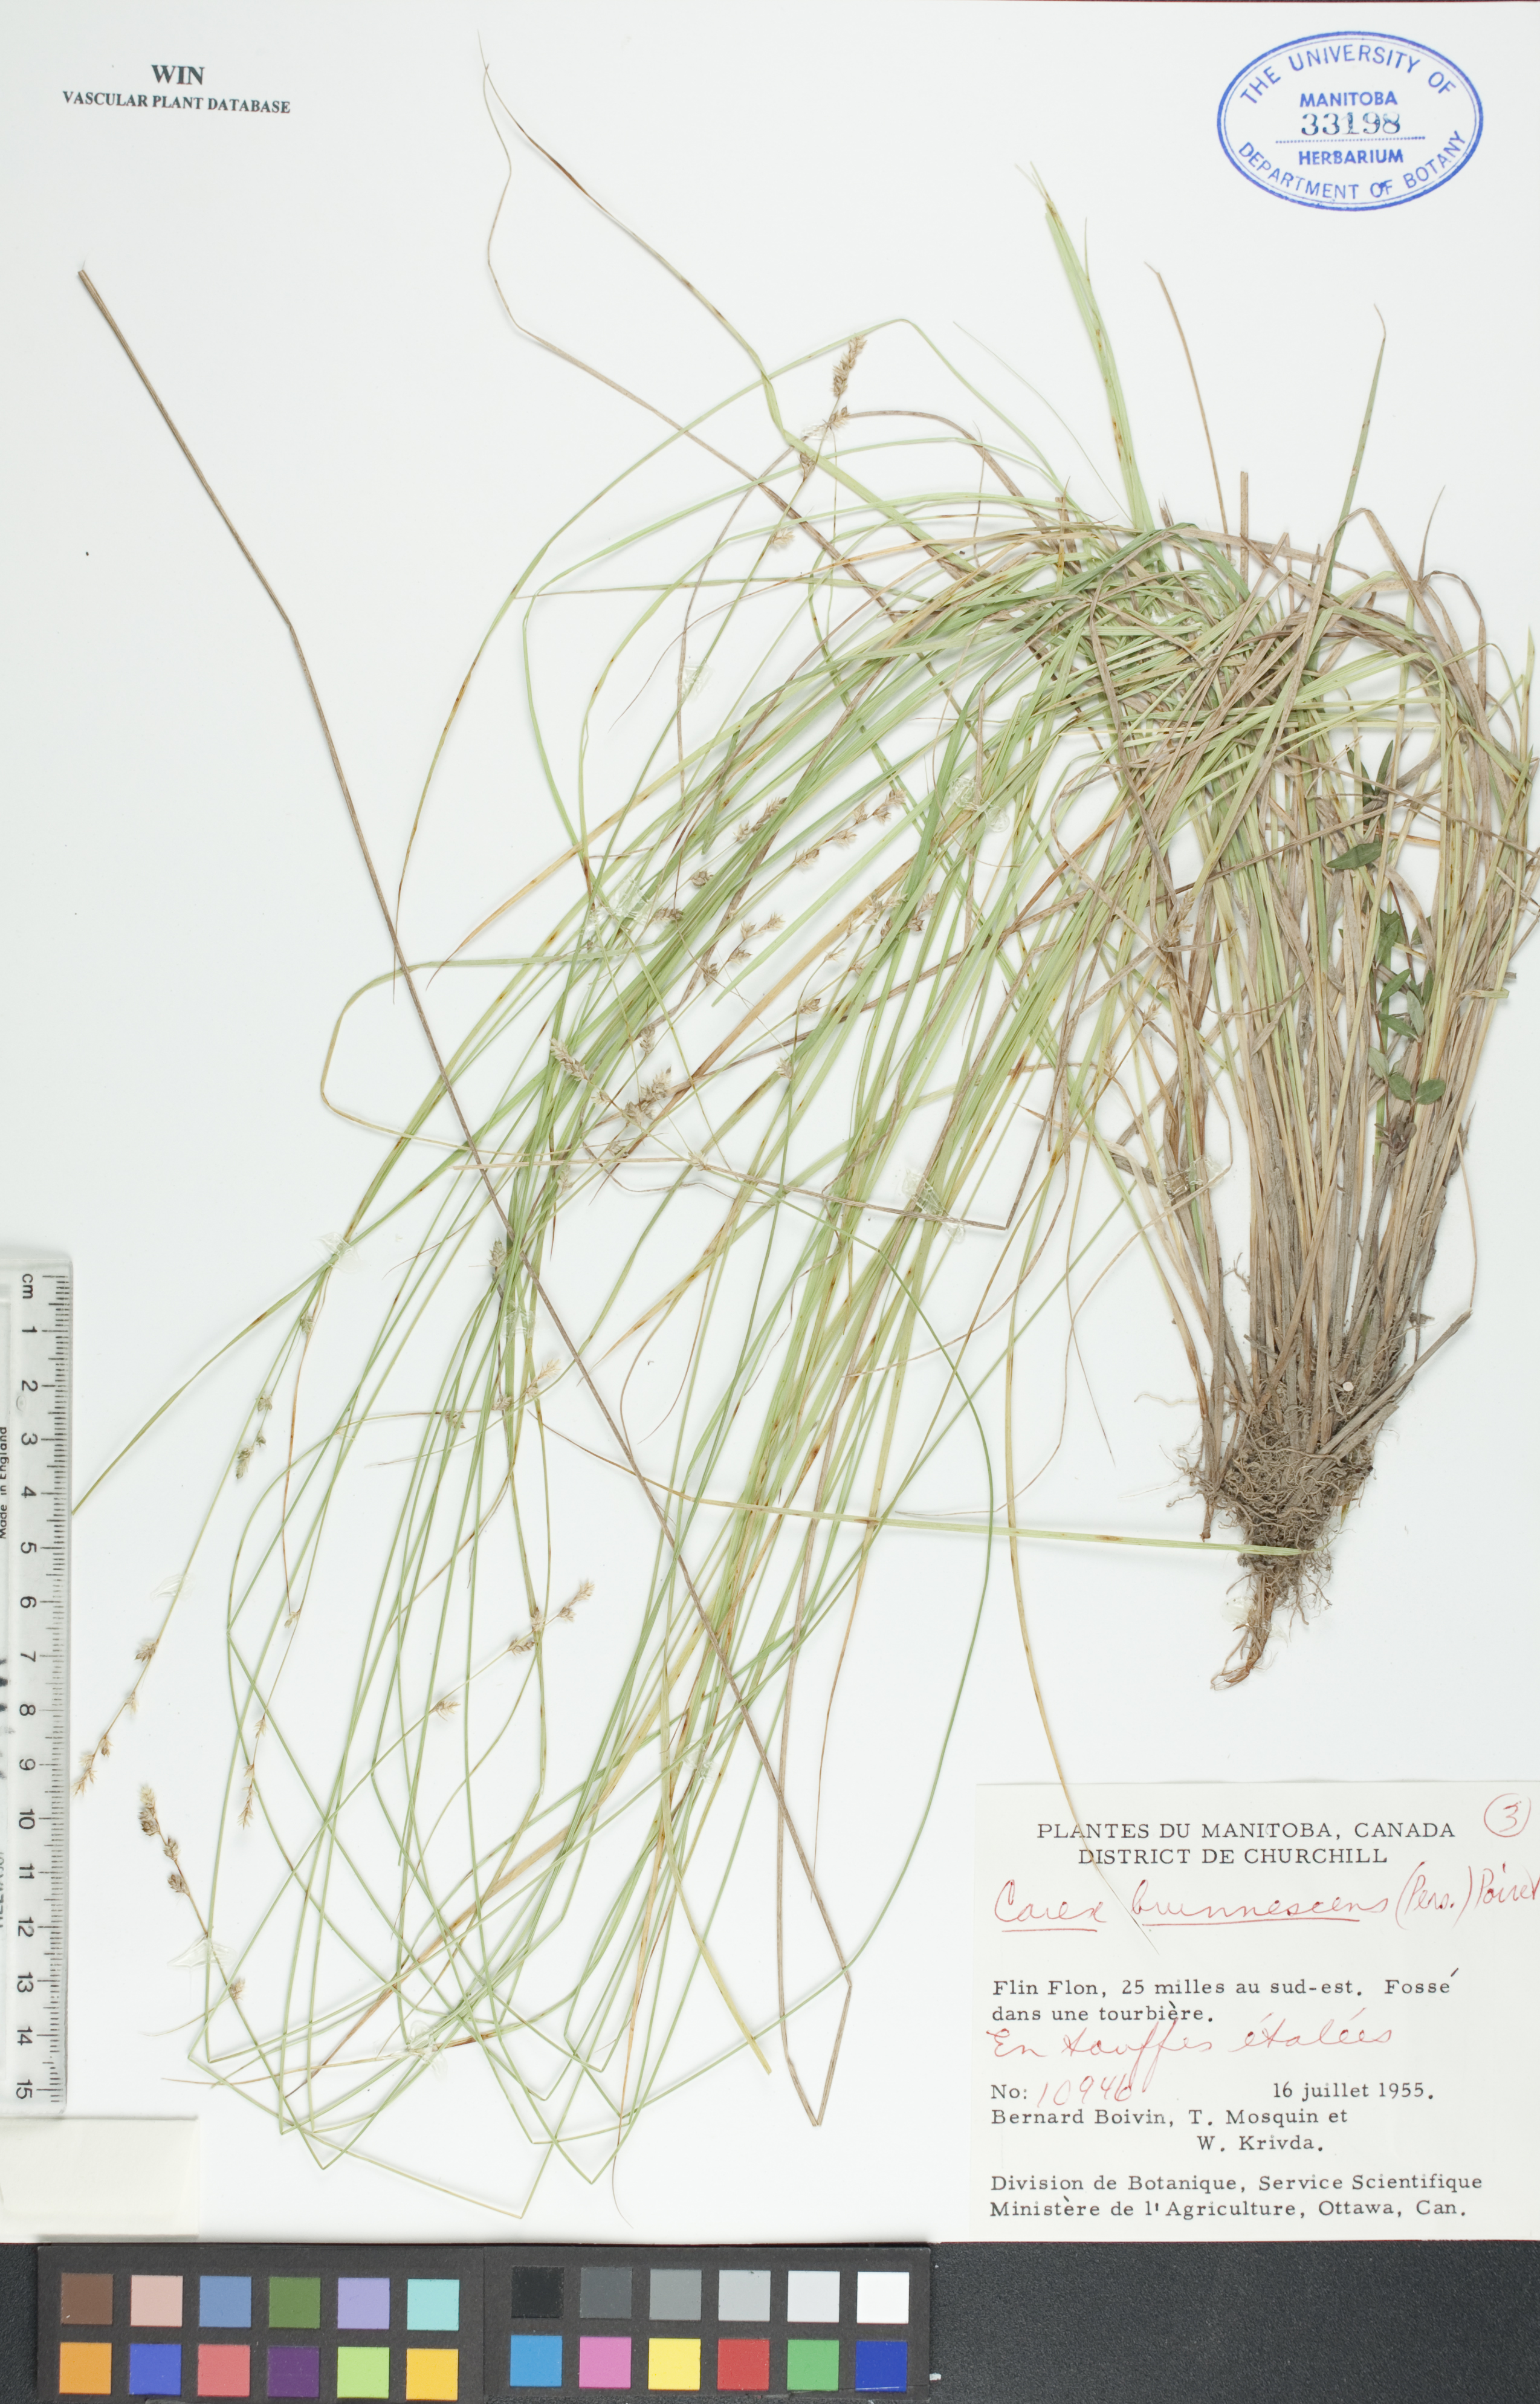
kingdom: Plantae
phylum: Tracheophyta
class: Liliopsida
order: Poales
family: Cyperaceae
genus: Carex
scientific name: Carex brunnescens
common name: Brown sedge
